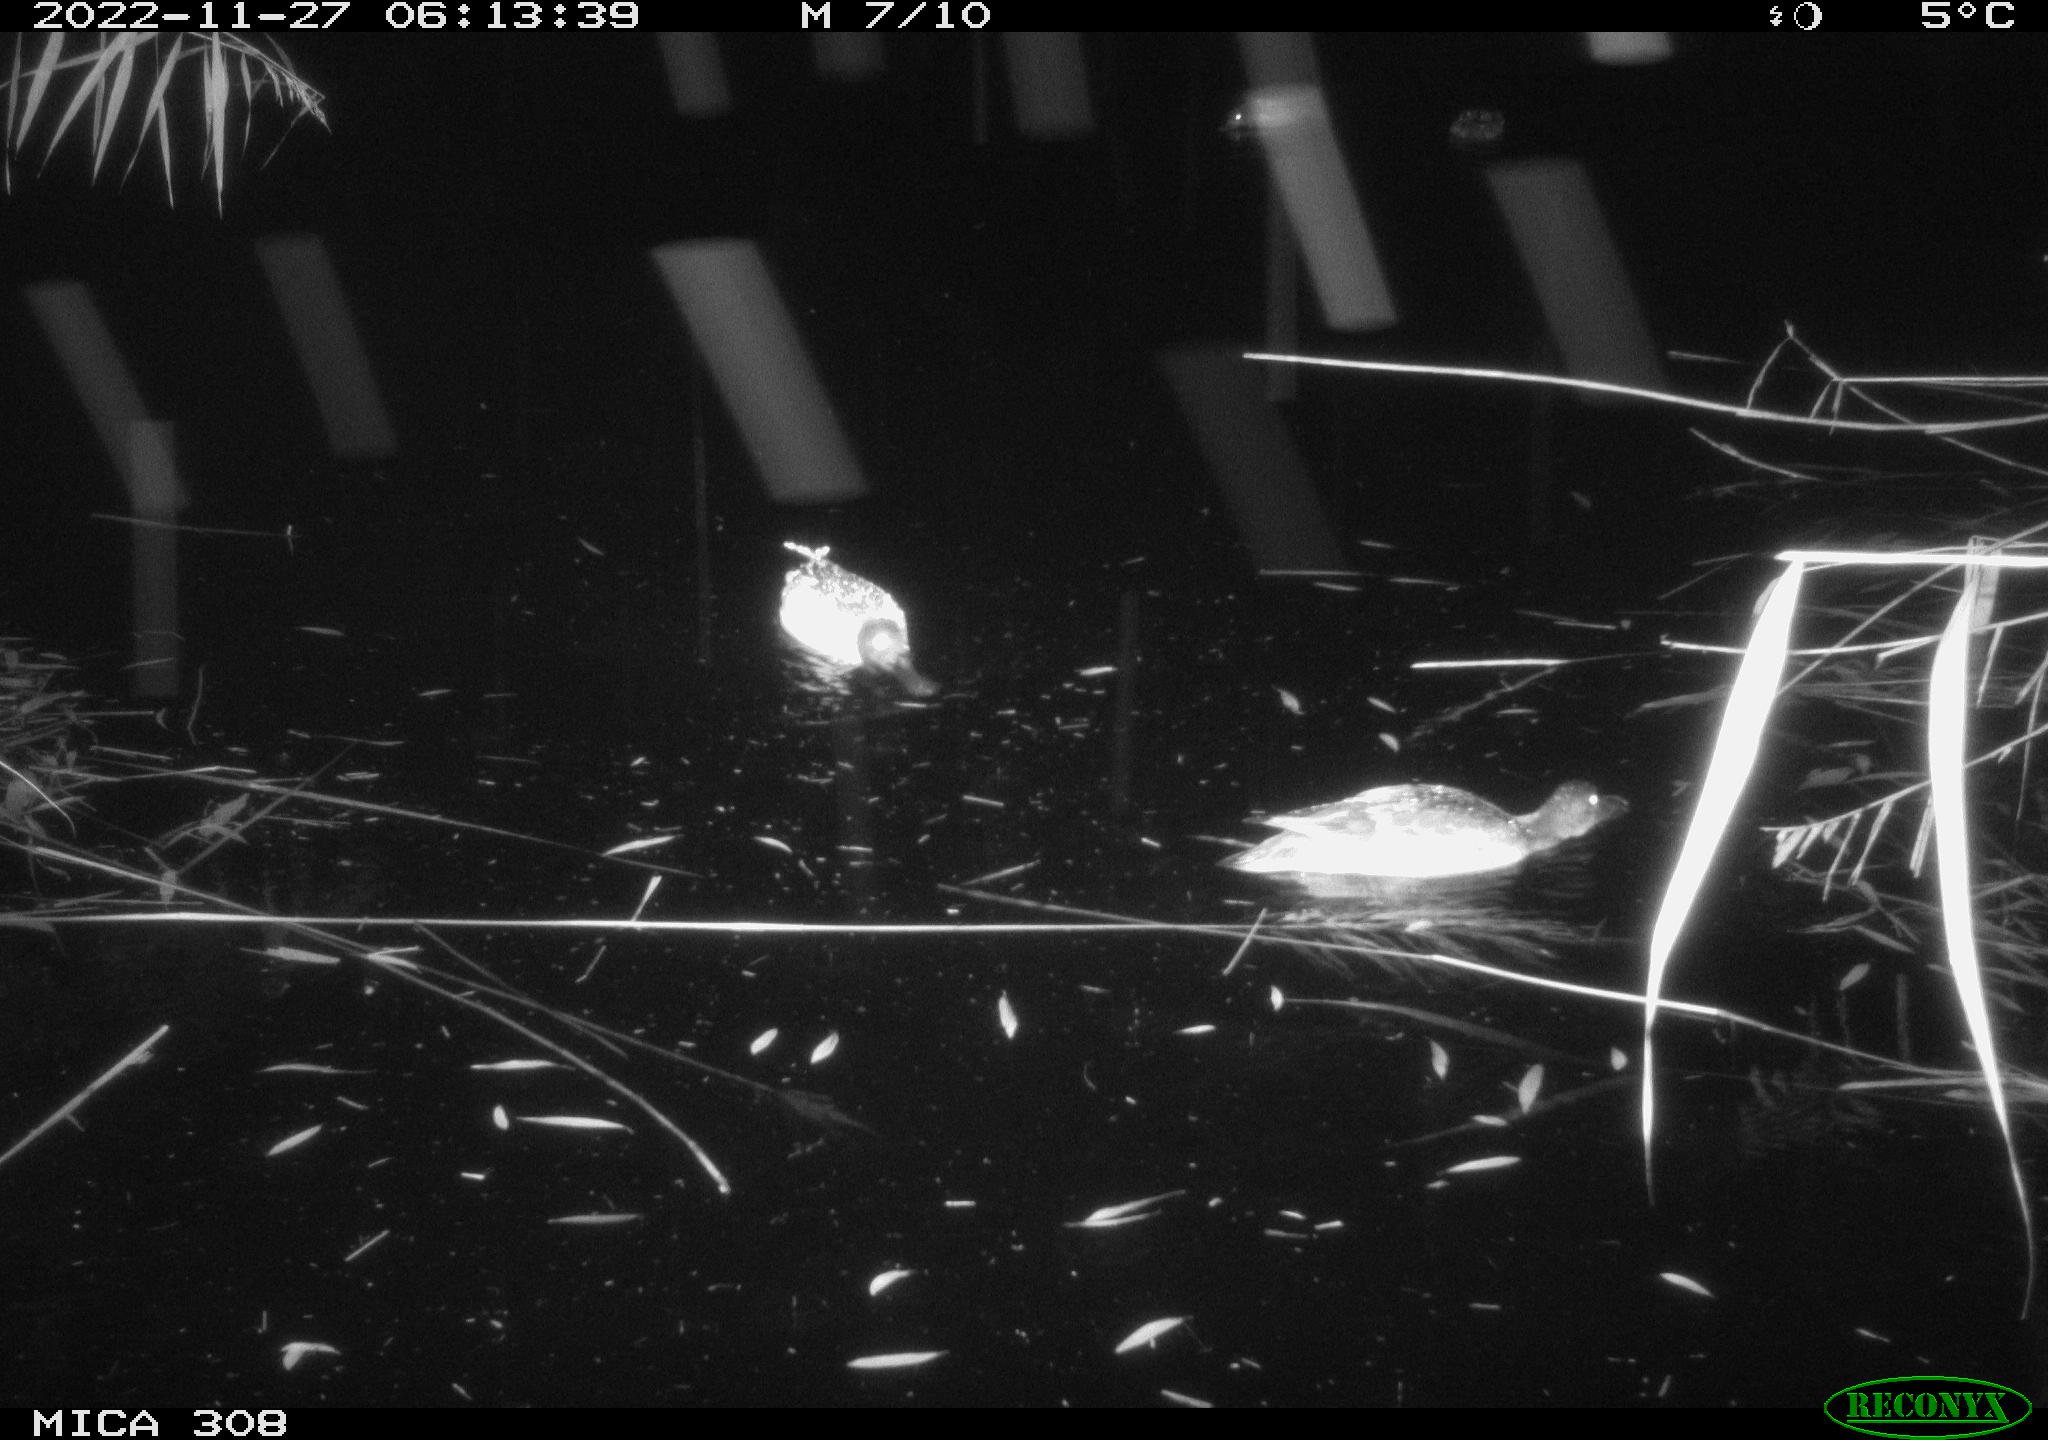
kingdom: Animalia
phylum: Chordata
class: Aves
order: Anseriformes
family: Anatidae
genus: Anas
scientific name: Anas
